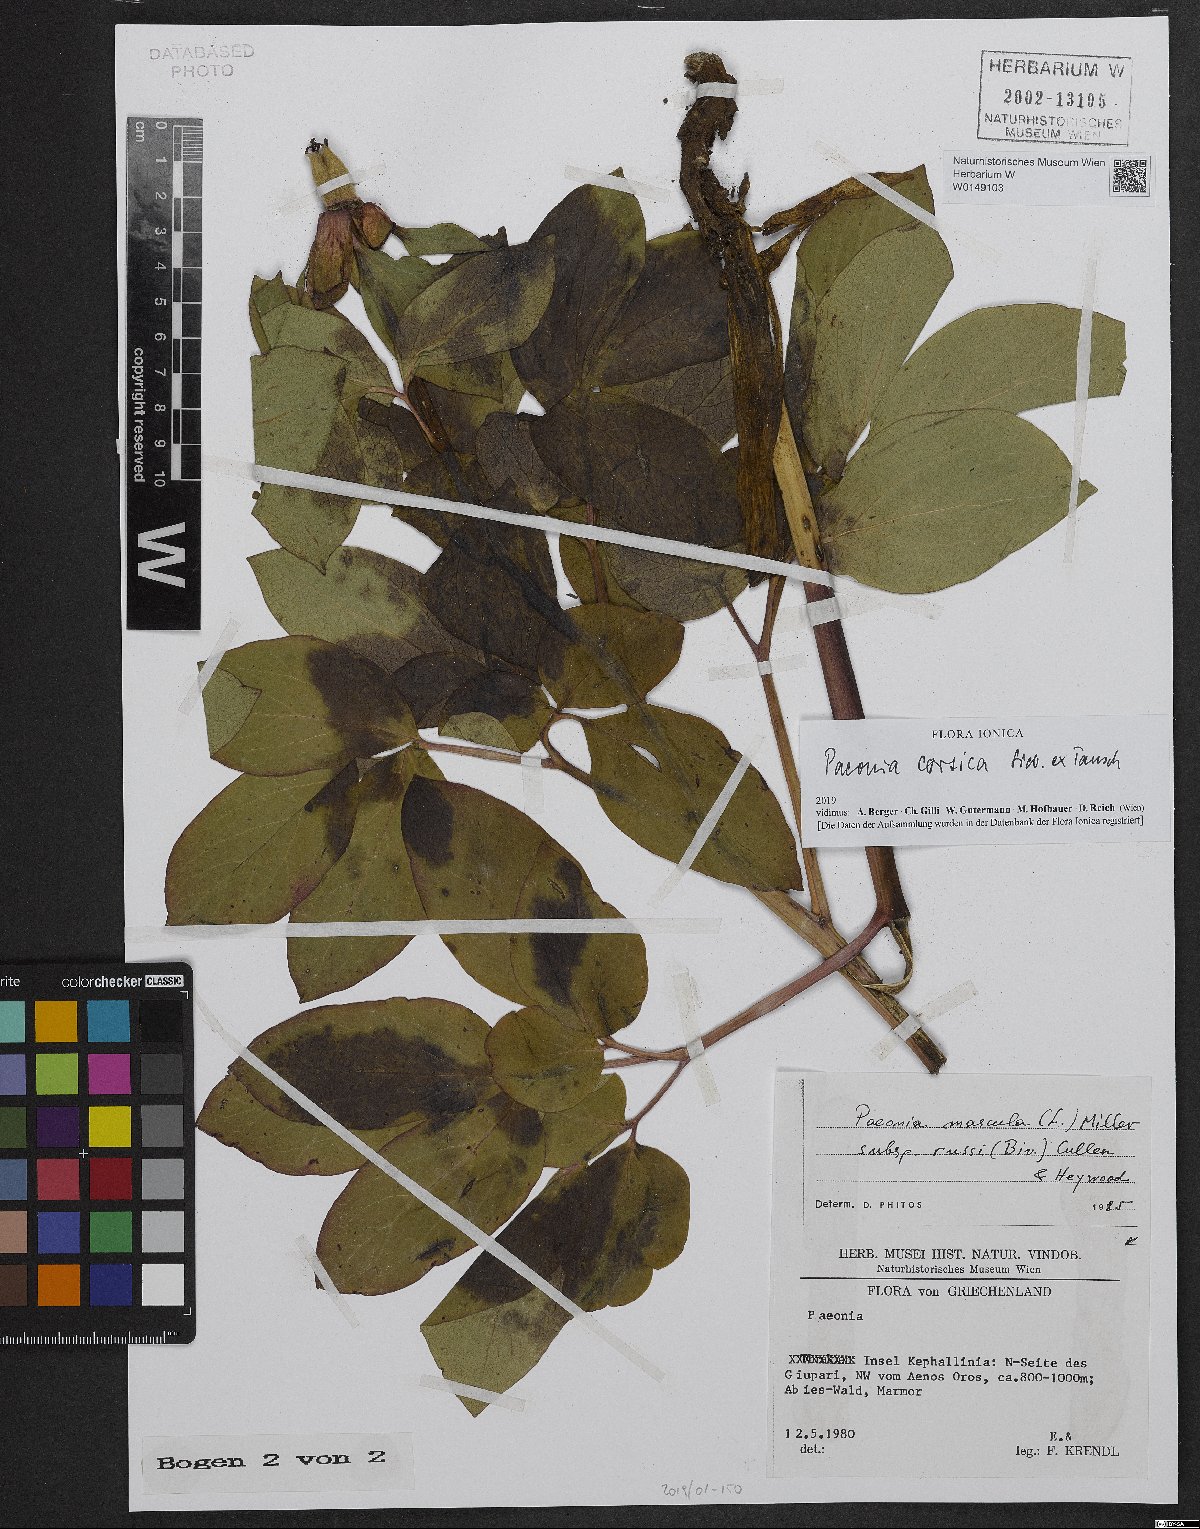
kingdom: Plantae
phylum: Tracheophyta
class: Magnoliopsida
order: Saxifragales
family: Paeoniaceae
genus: Paeonia
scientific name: Paeonia corsica
